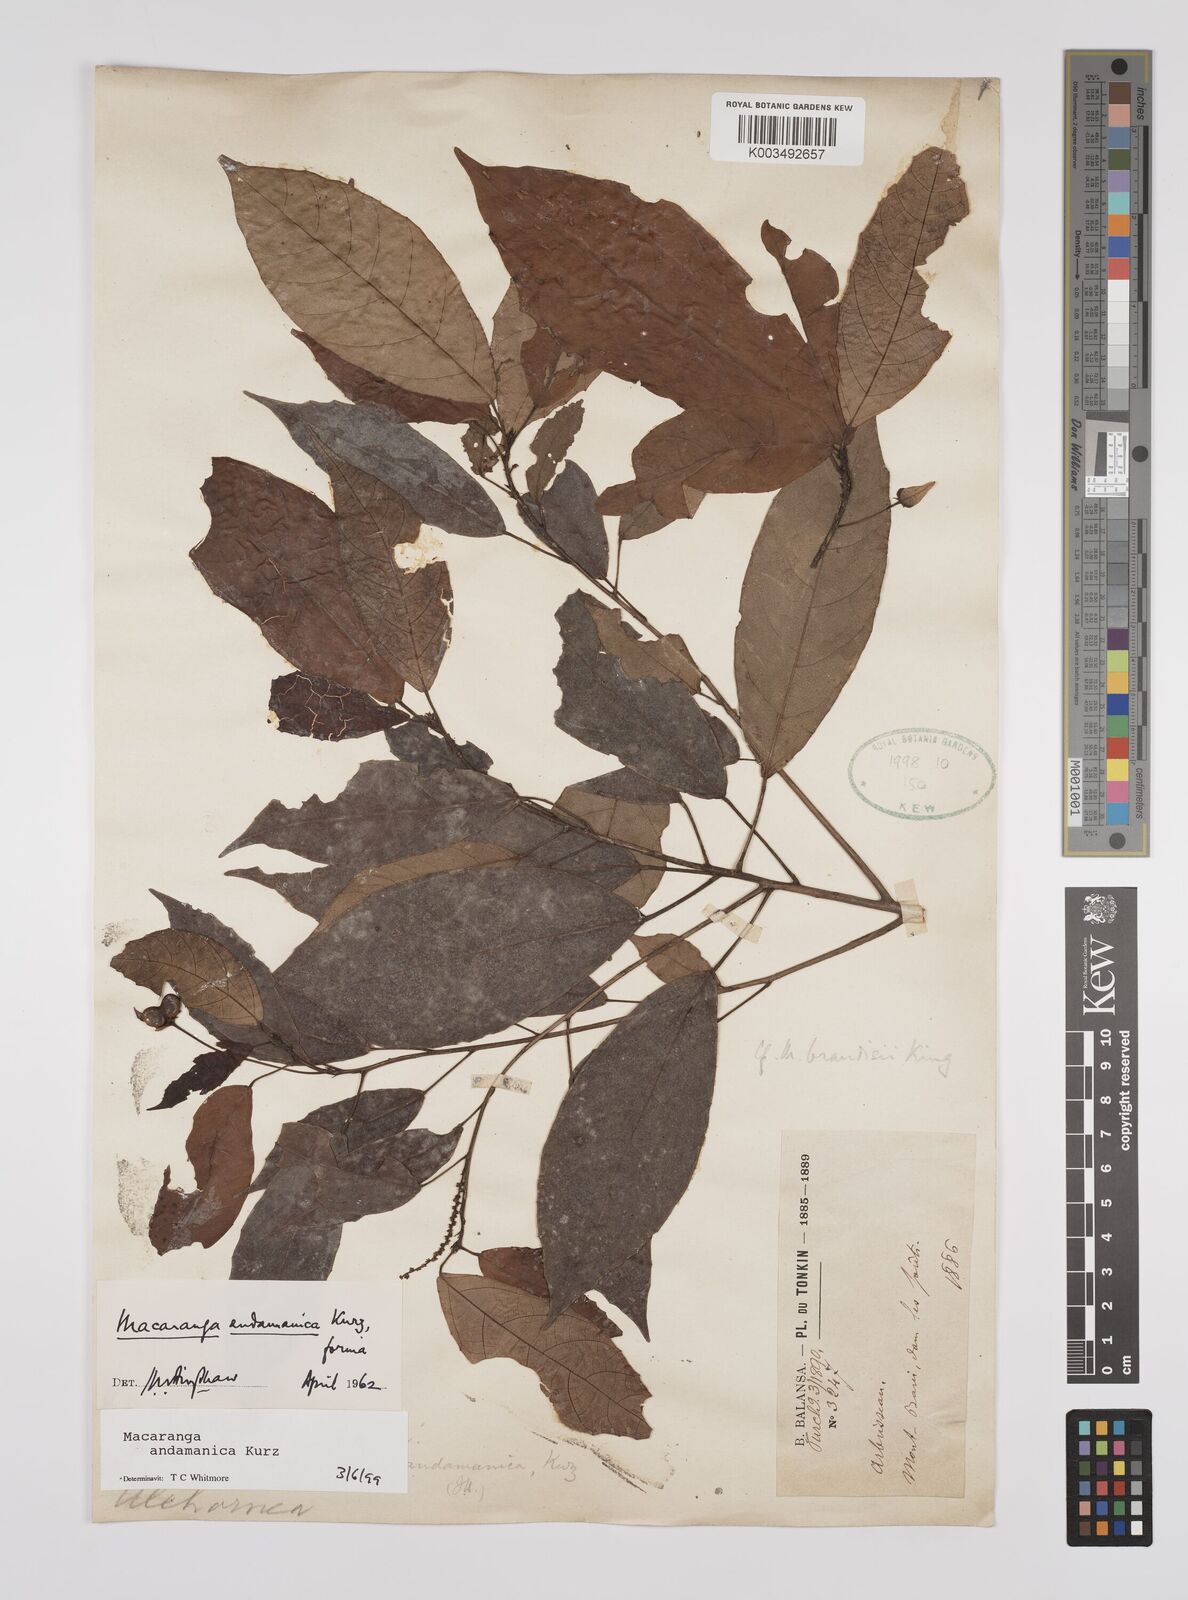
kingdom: Plantae
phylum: Tracheophyta
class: Magnoliopsida
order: Malpighiales
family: Euphorbiaceae
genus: Macaranga
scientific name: Macaranga andamanica
